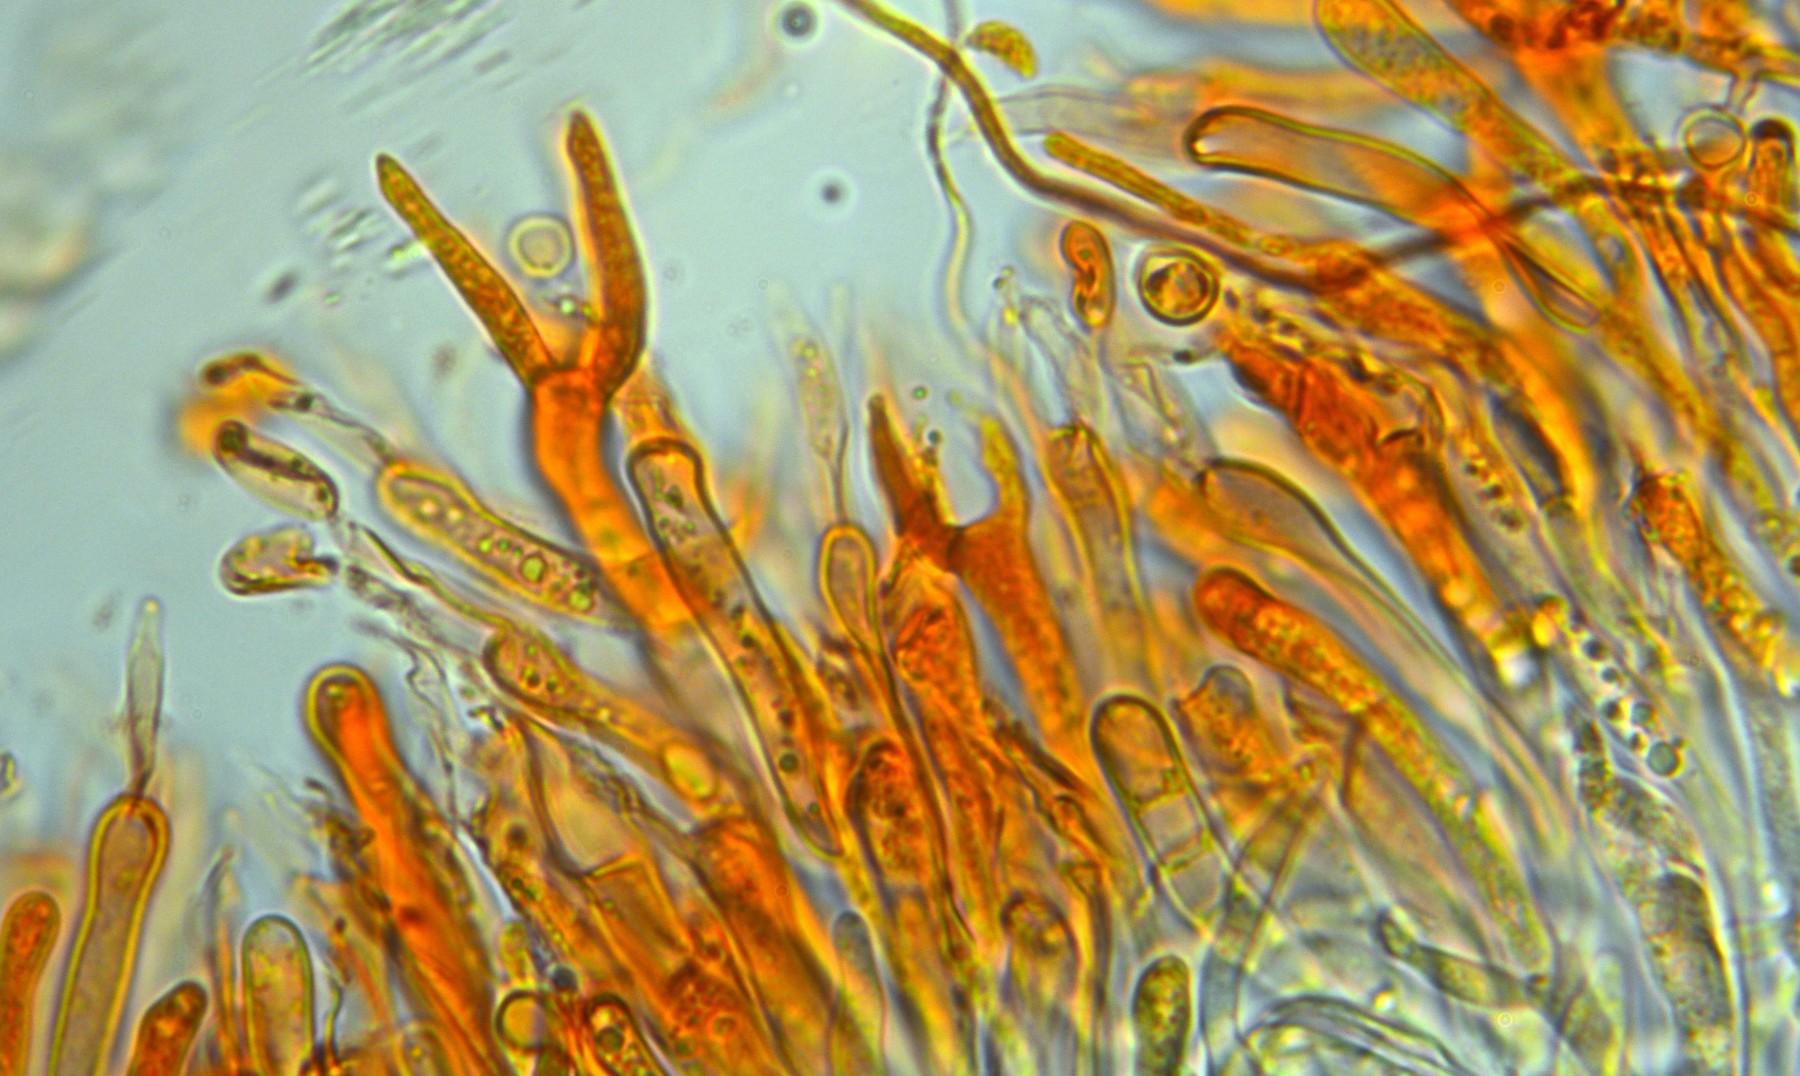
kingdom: Fungi
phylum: Basidiomycota
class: Dacrymycetes
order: Dacrymycetales
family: Dacrymycetaceae
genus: Dacrymyces
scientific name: Dacrymyces stillatus
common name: almindelig tåresvamp
